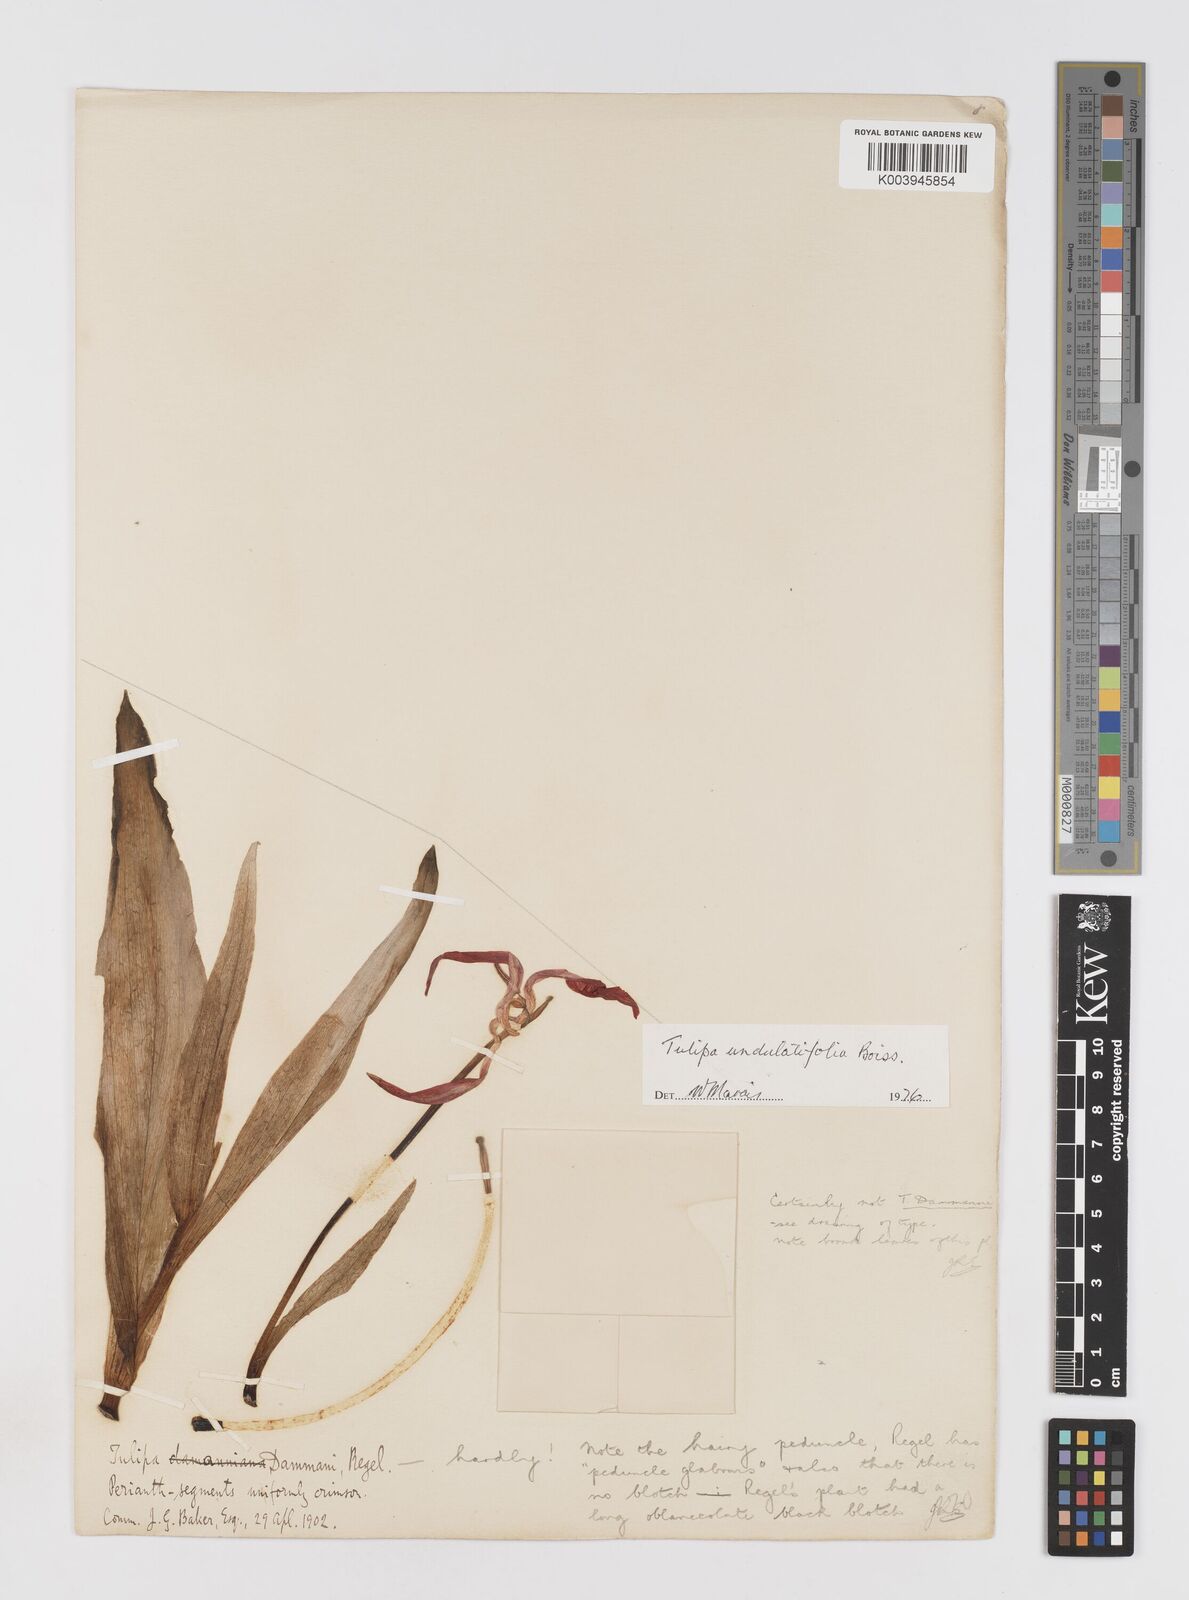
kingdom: Plantae
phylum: Tracheophyta
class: Liliopsida
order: Liliales
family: Liliaceae
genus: Tulipa
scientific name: Tulipa undulatifolia
